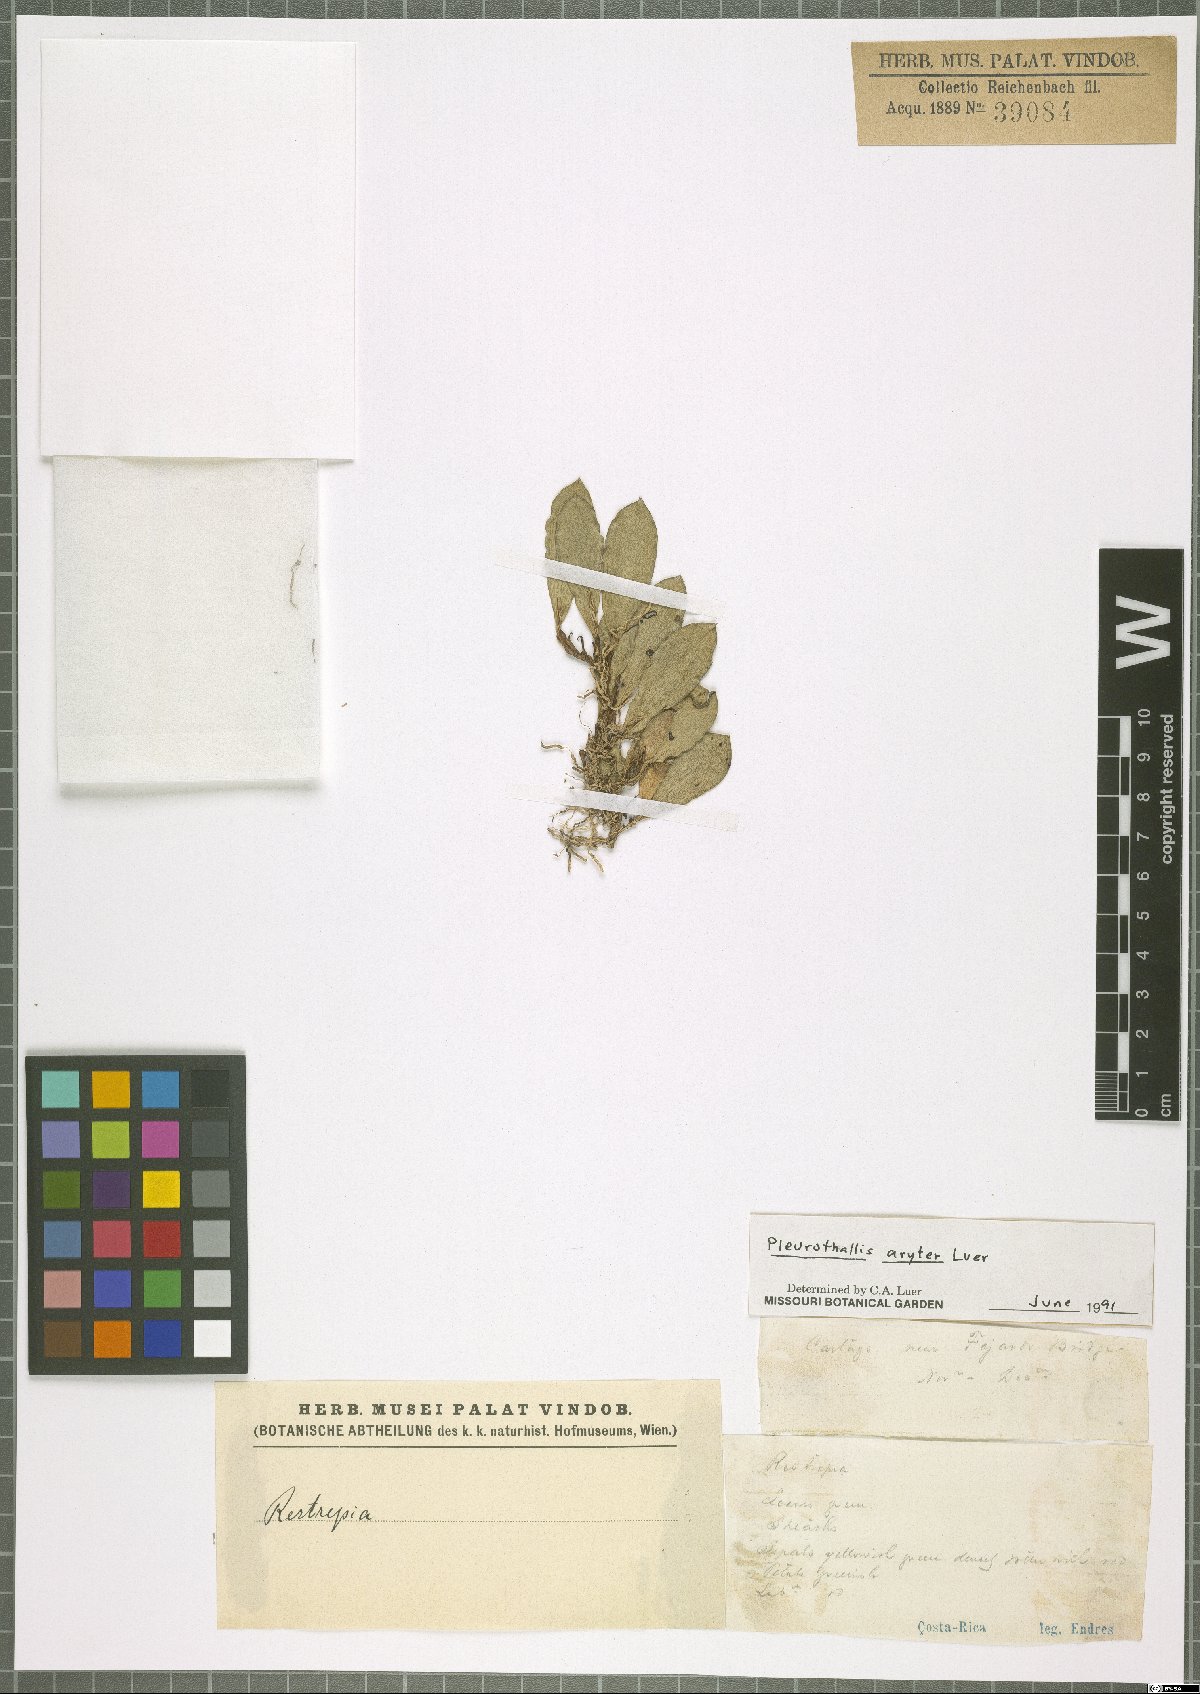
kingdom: Plantae
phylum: Tracheophyta
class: Liliopsida
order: Asparagales
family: Orchidaceae
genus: Pabstiella
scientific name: Pabstiella aryter
